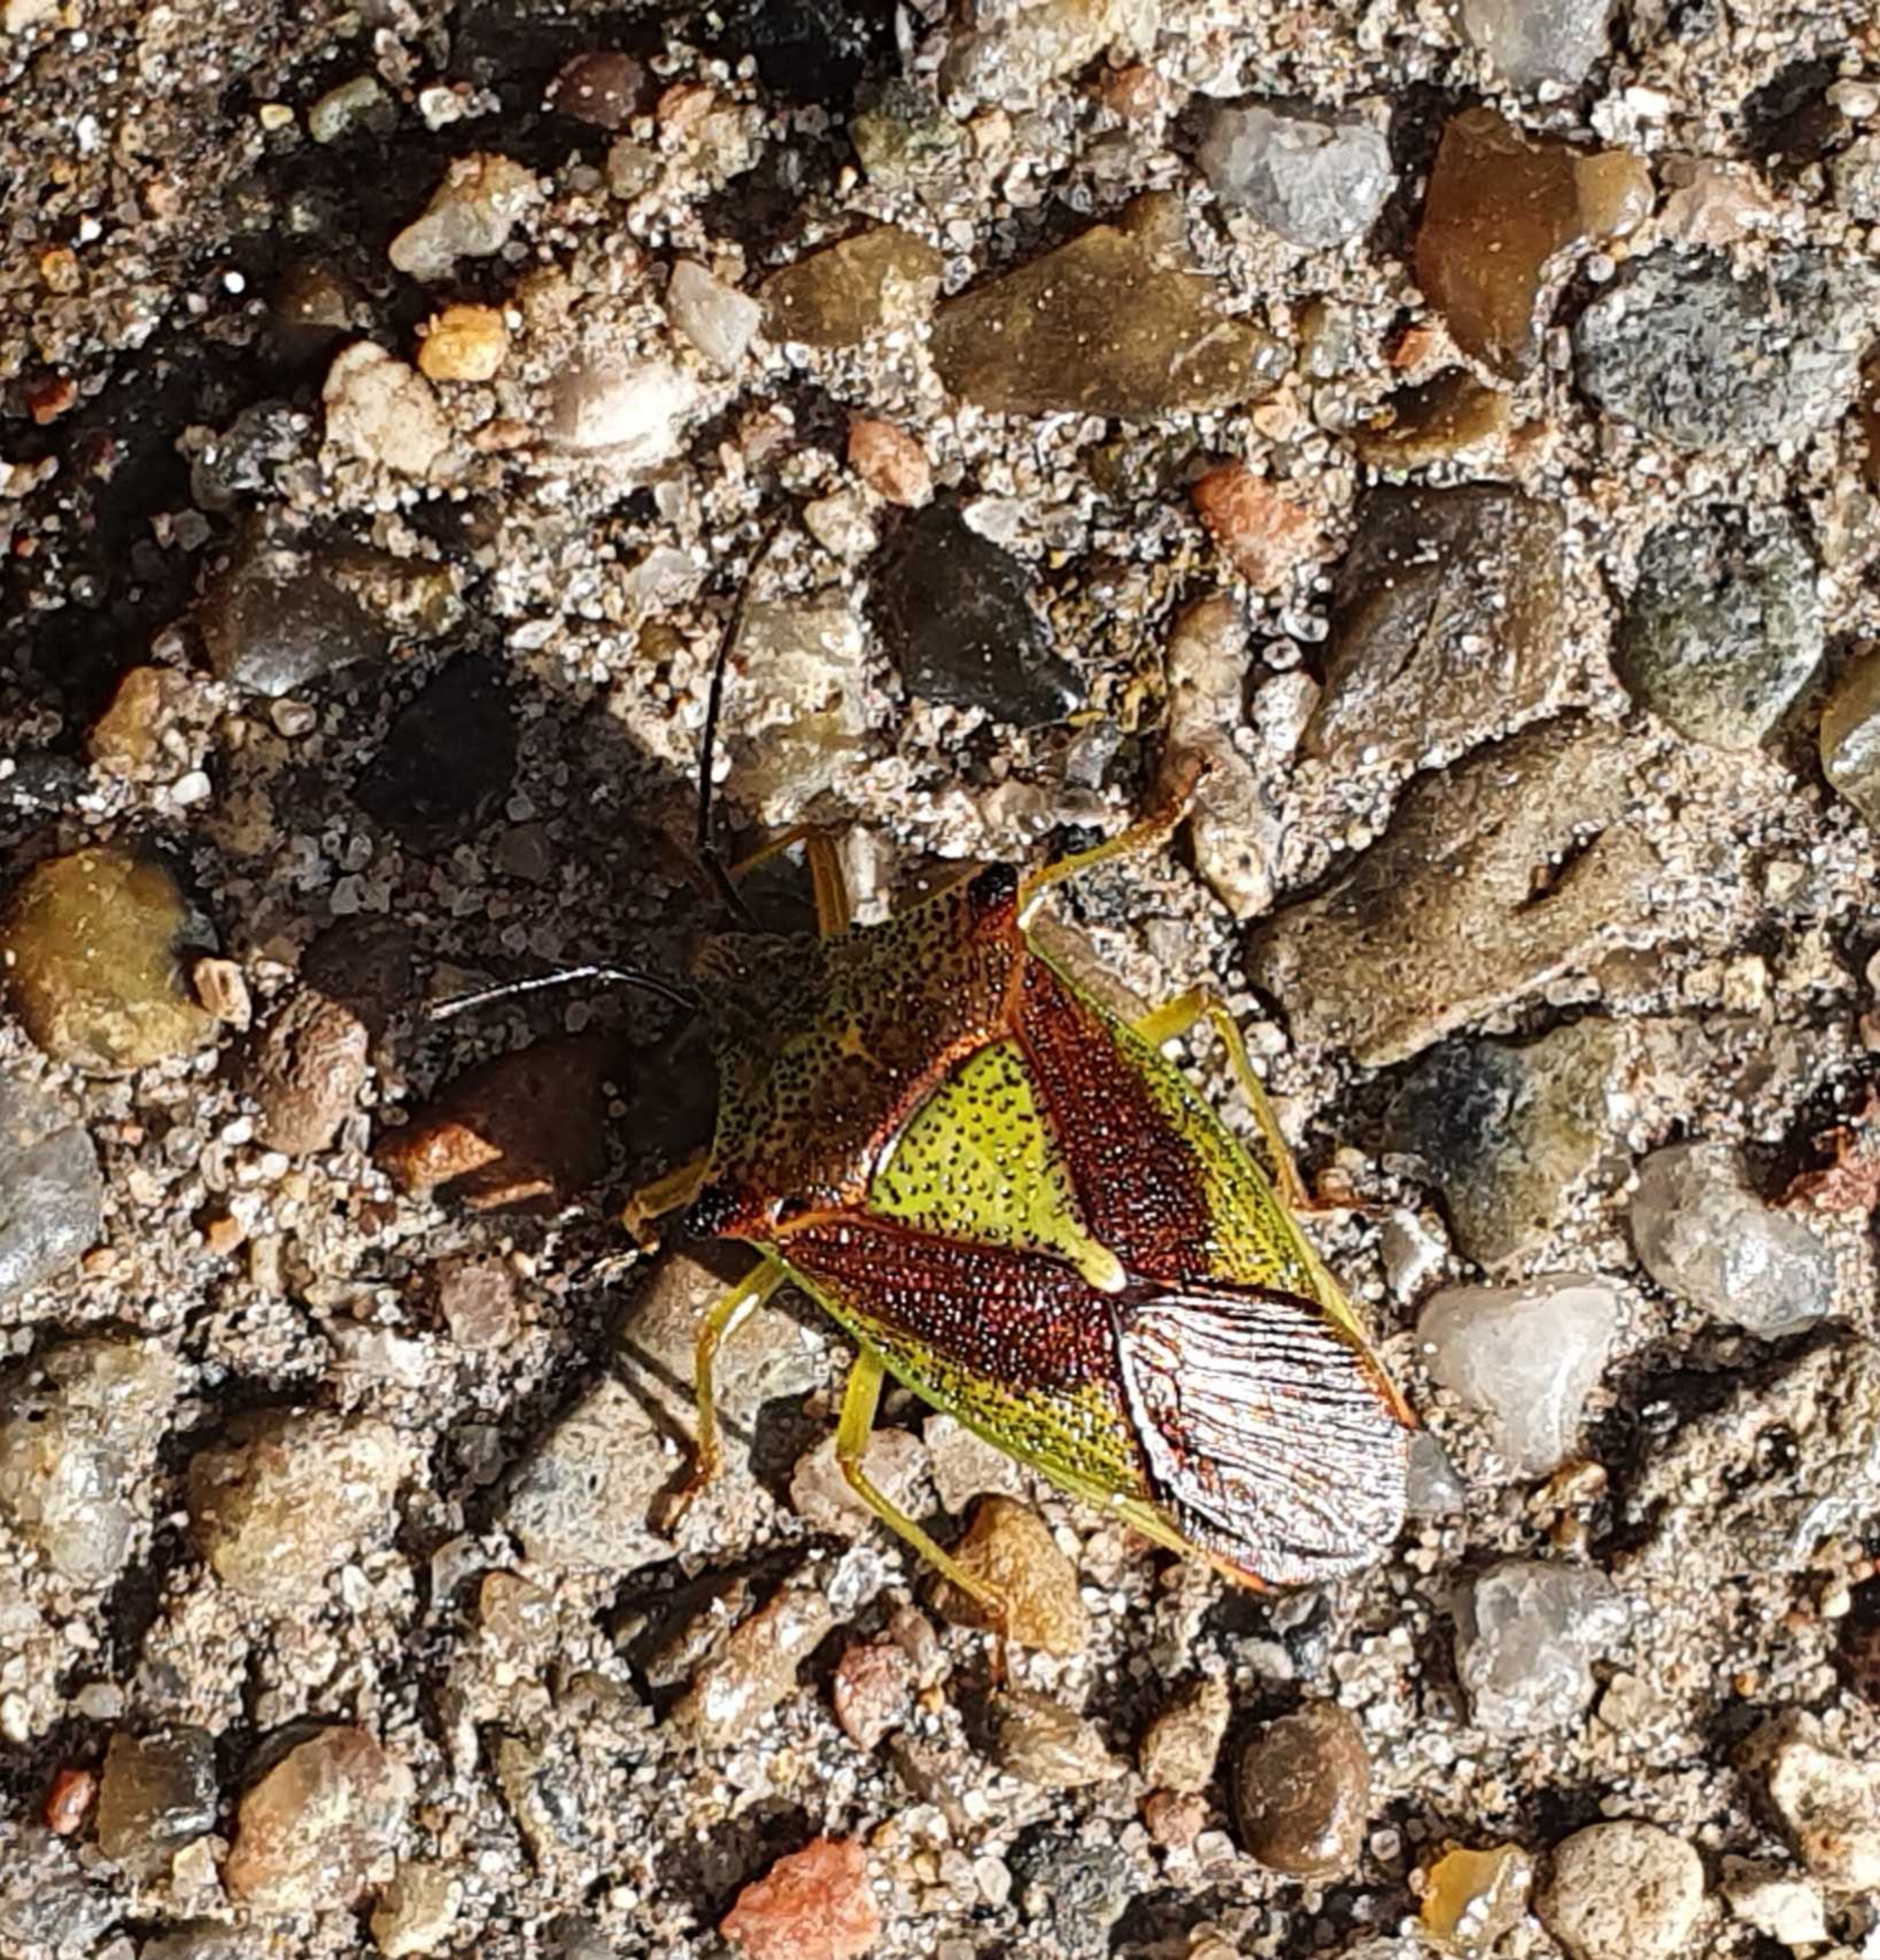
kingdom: Animalia
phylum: Arthropoda
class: Insecta
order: Hemiptera
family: Acanthosomatidae
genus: Acanthosoma
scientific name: Acanthosoma haemorrhoidale
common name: Stor løvtæge
